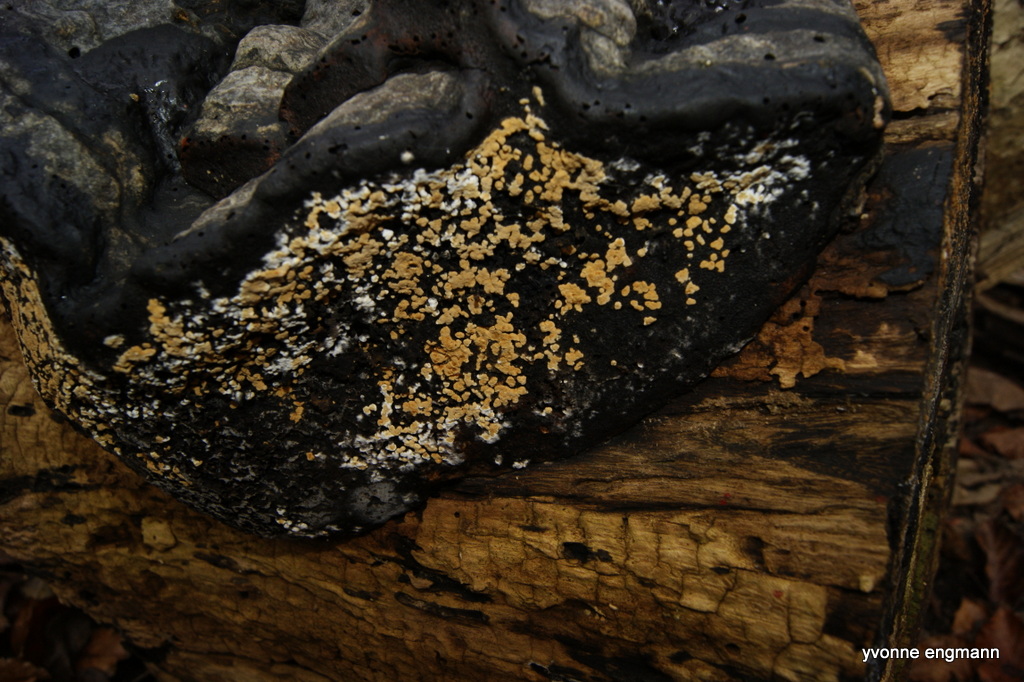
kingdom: Fungi
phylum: Basidiomycota
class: Agaricomycetes
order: Cantharellales
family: Botryobasidiaceae
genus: Botryobasidium
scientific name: Botryobasidium aureum
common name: gylden spindhinde
